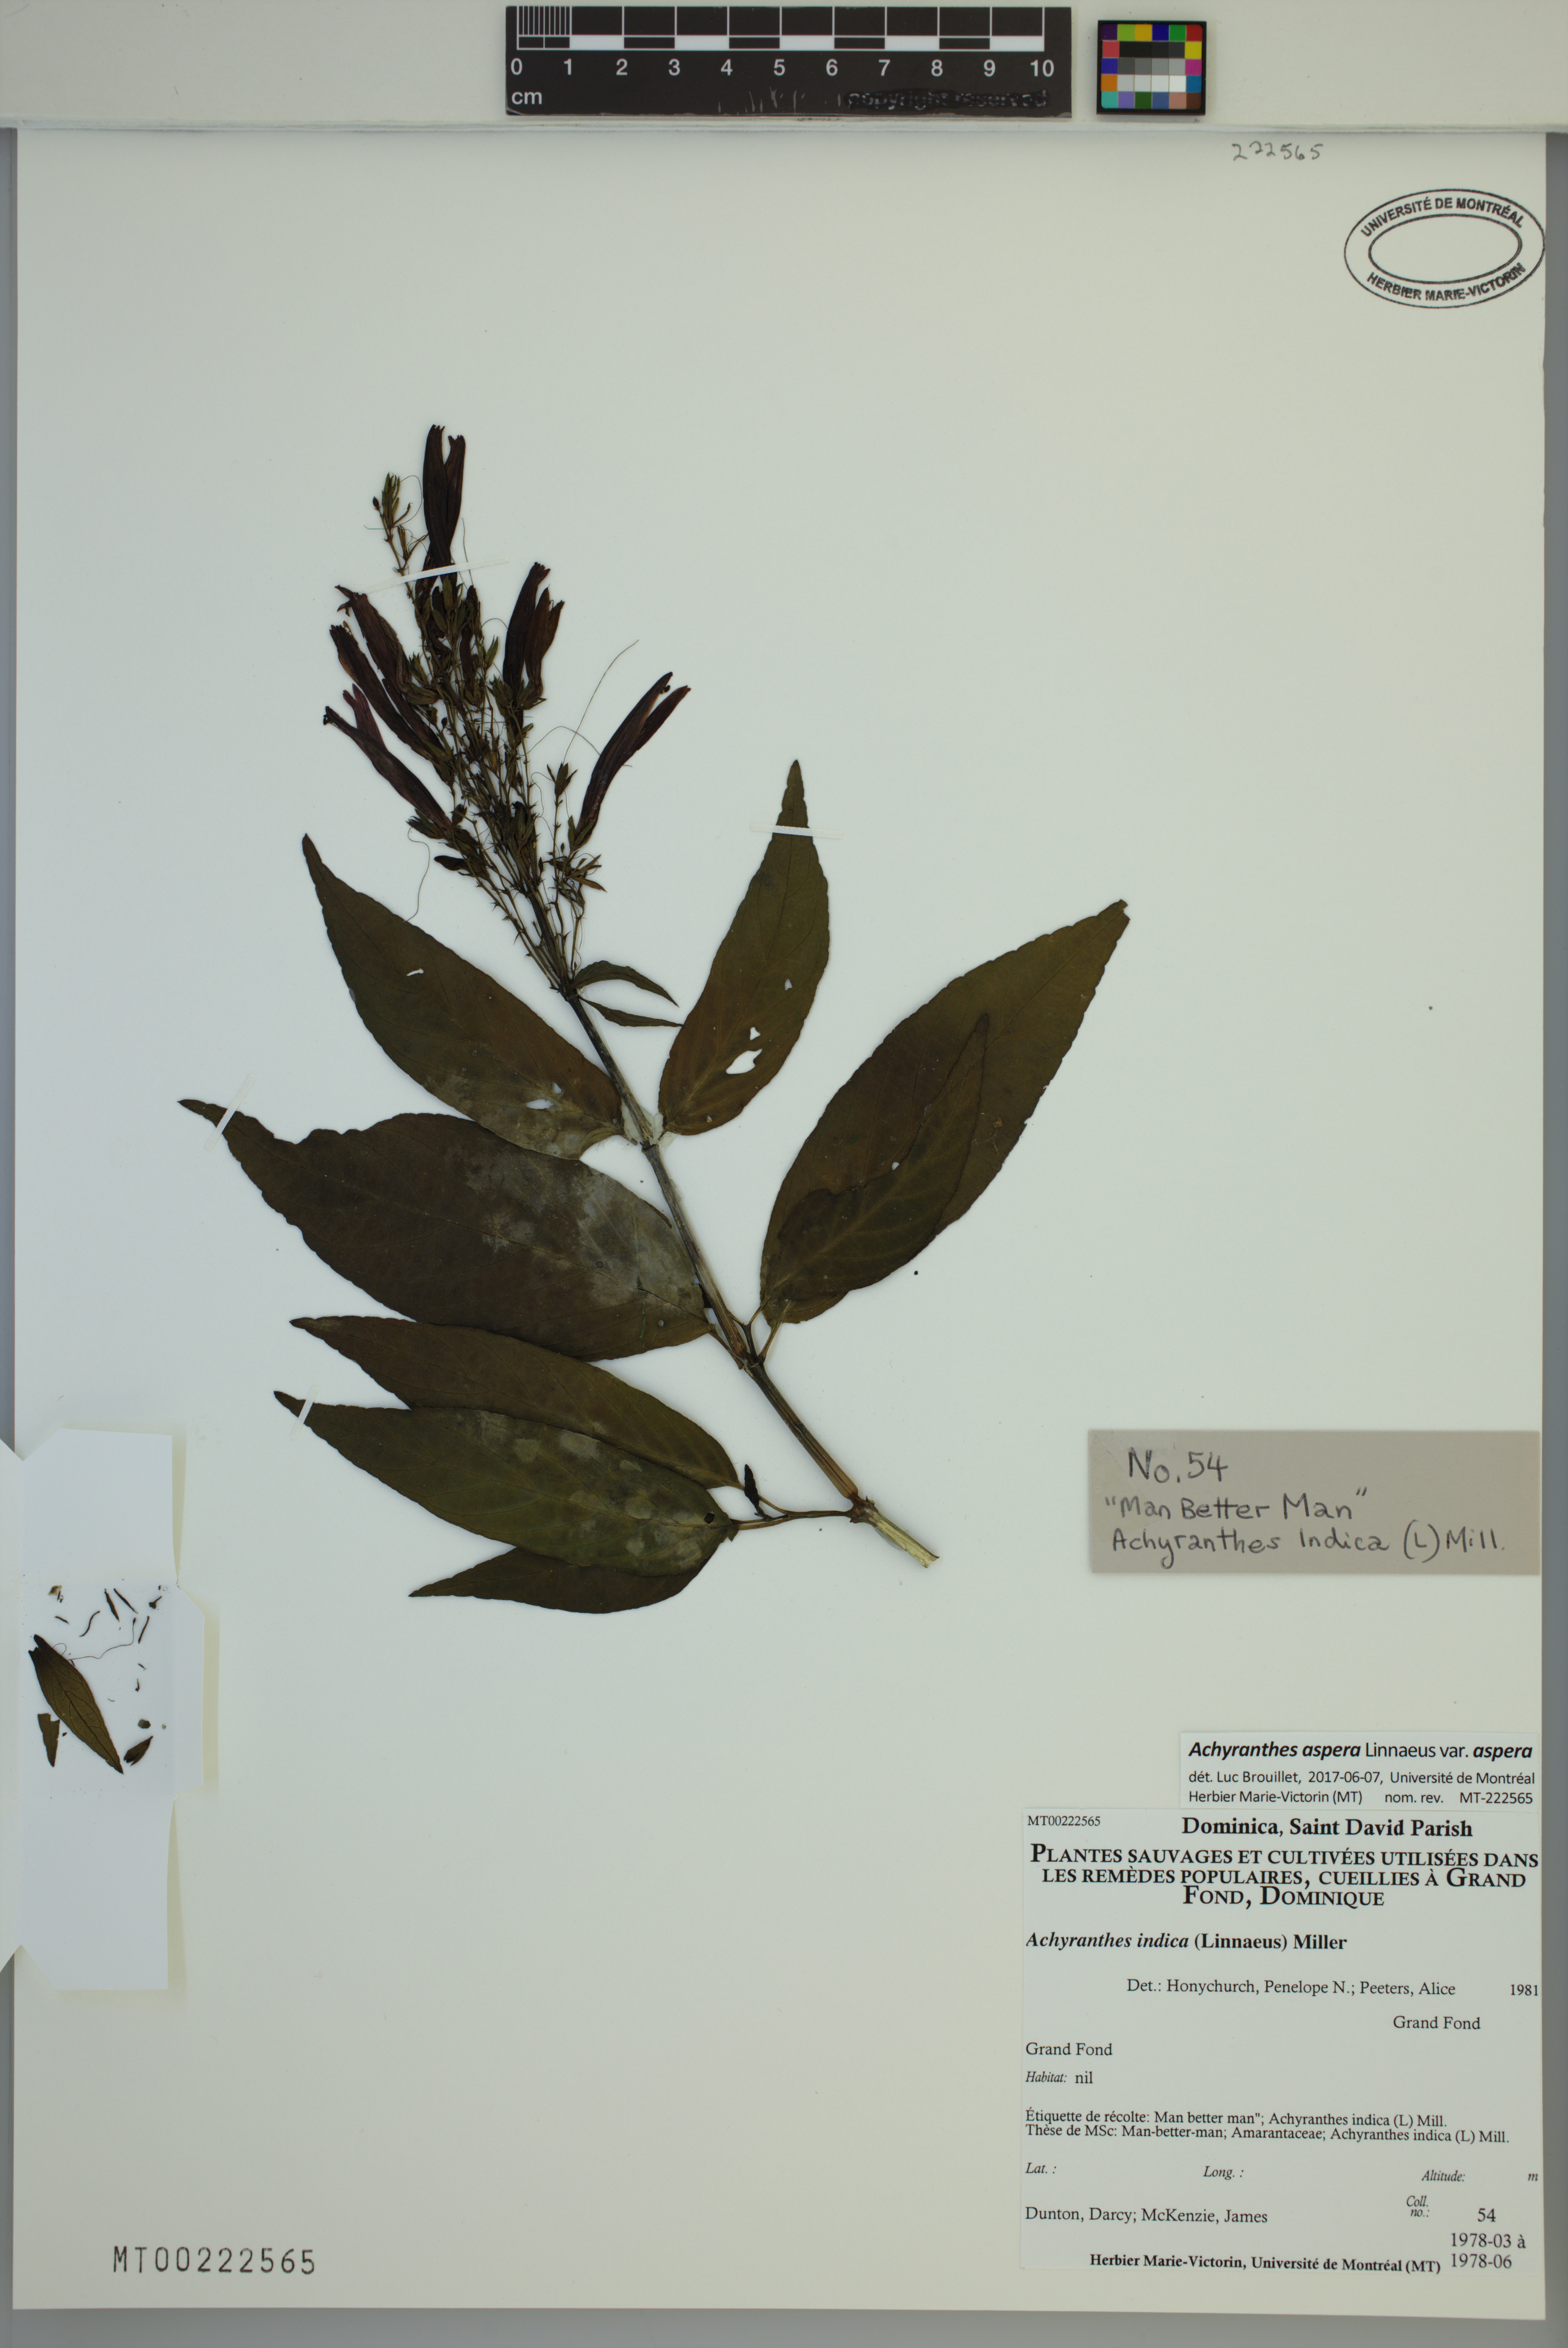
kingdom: Plantae
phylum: Tracheophyta
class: Magnoliopsida
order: Caryophyllales
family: Amaranthaceae
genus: Achyranthes
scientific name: Achyranthes aspera
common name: Devil's horsewhip
